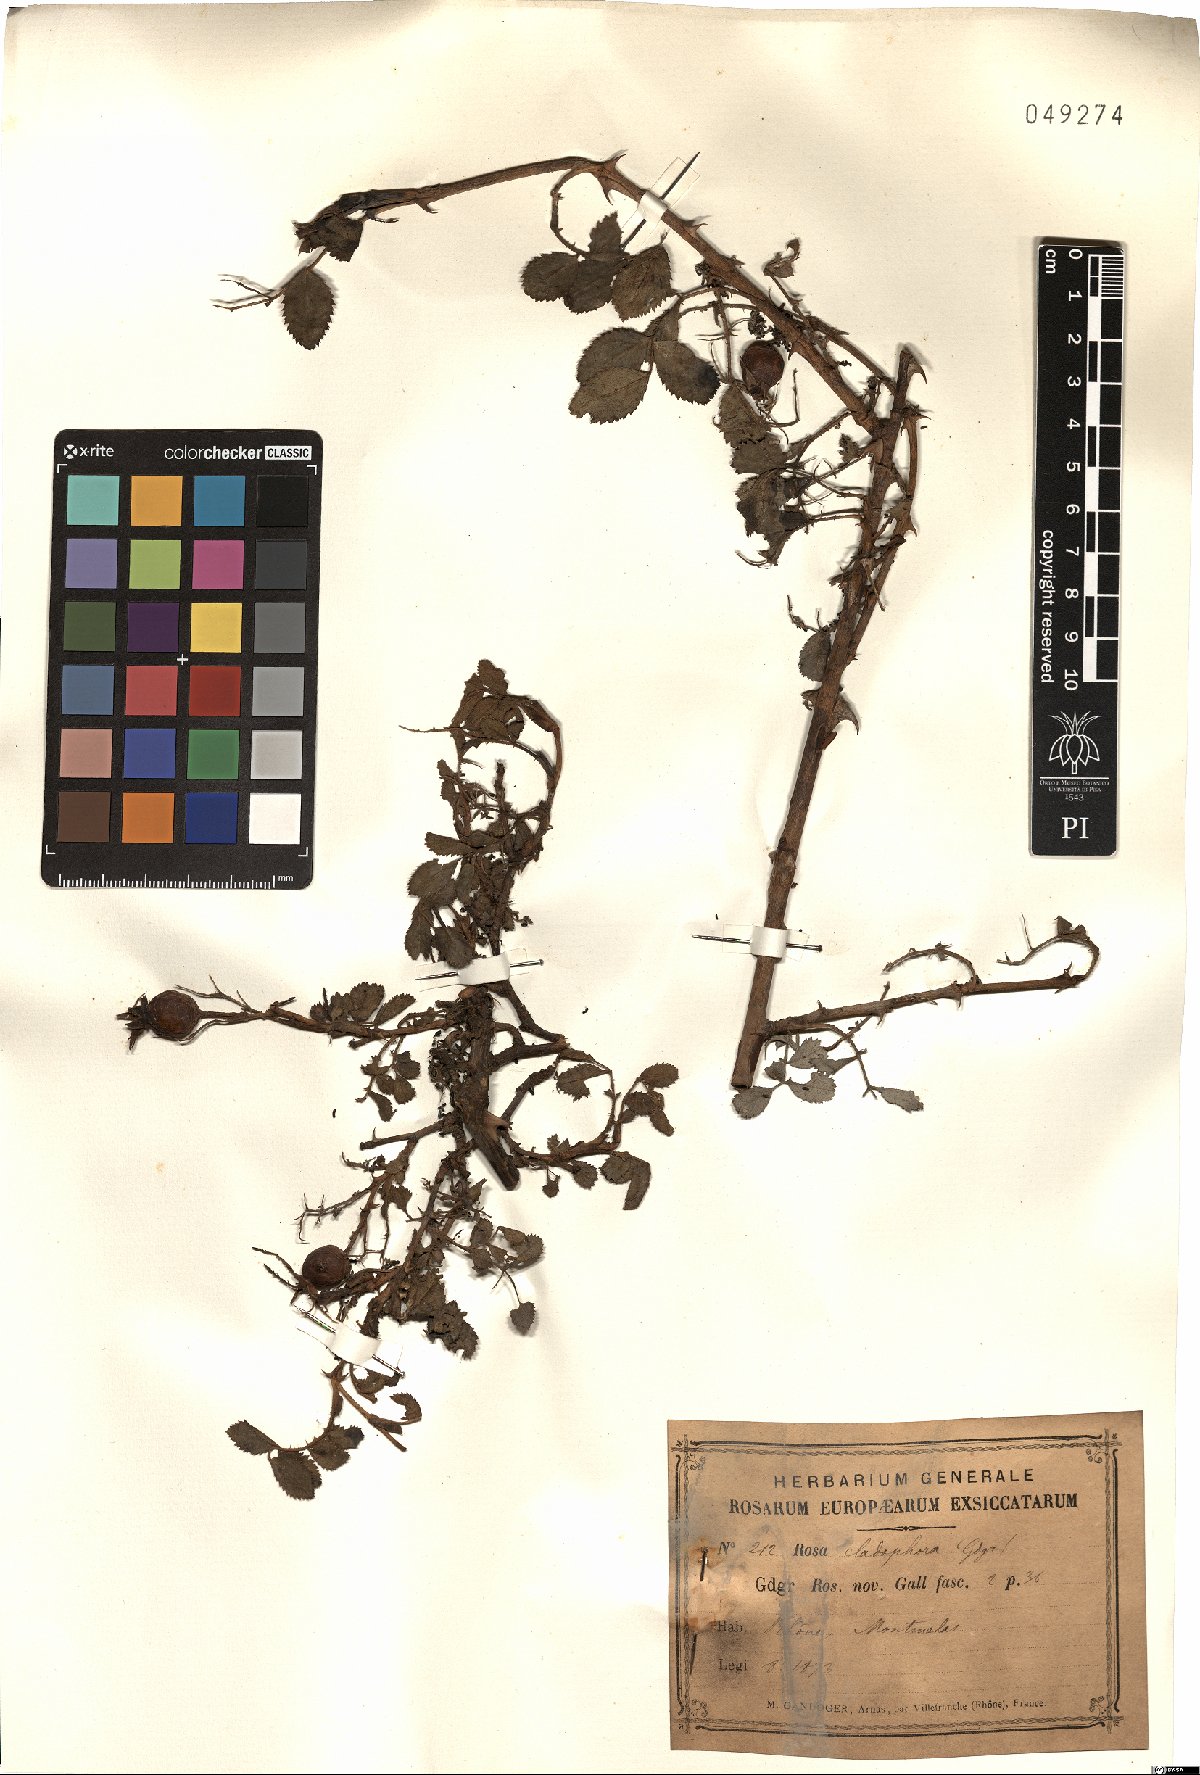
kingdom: Plantae
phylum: Tracheophyta
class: Magnoliopsida
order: Rosales
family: Rosaceae
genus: Rosa
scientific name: Rosa cladophora
